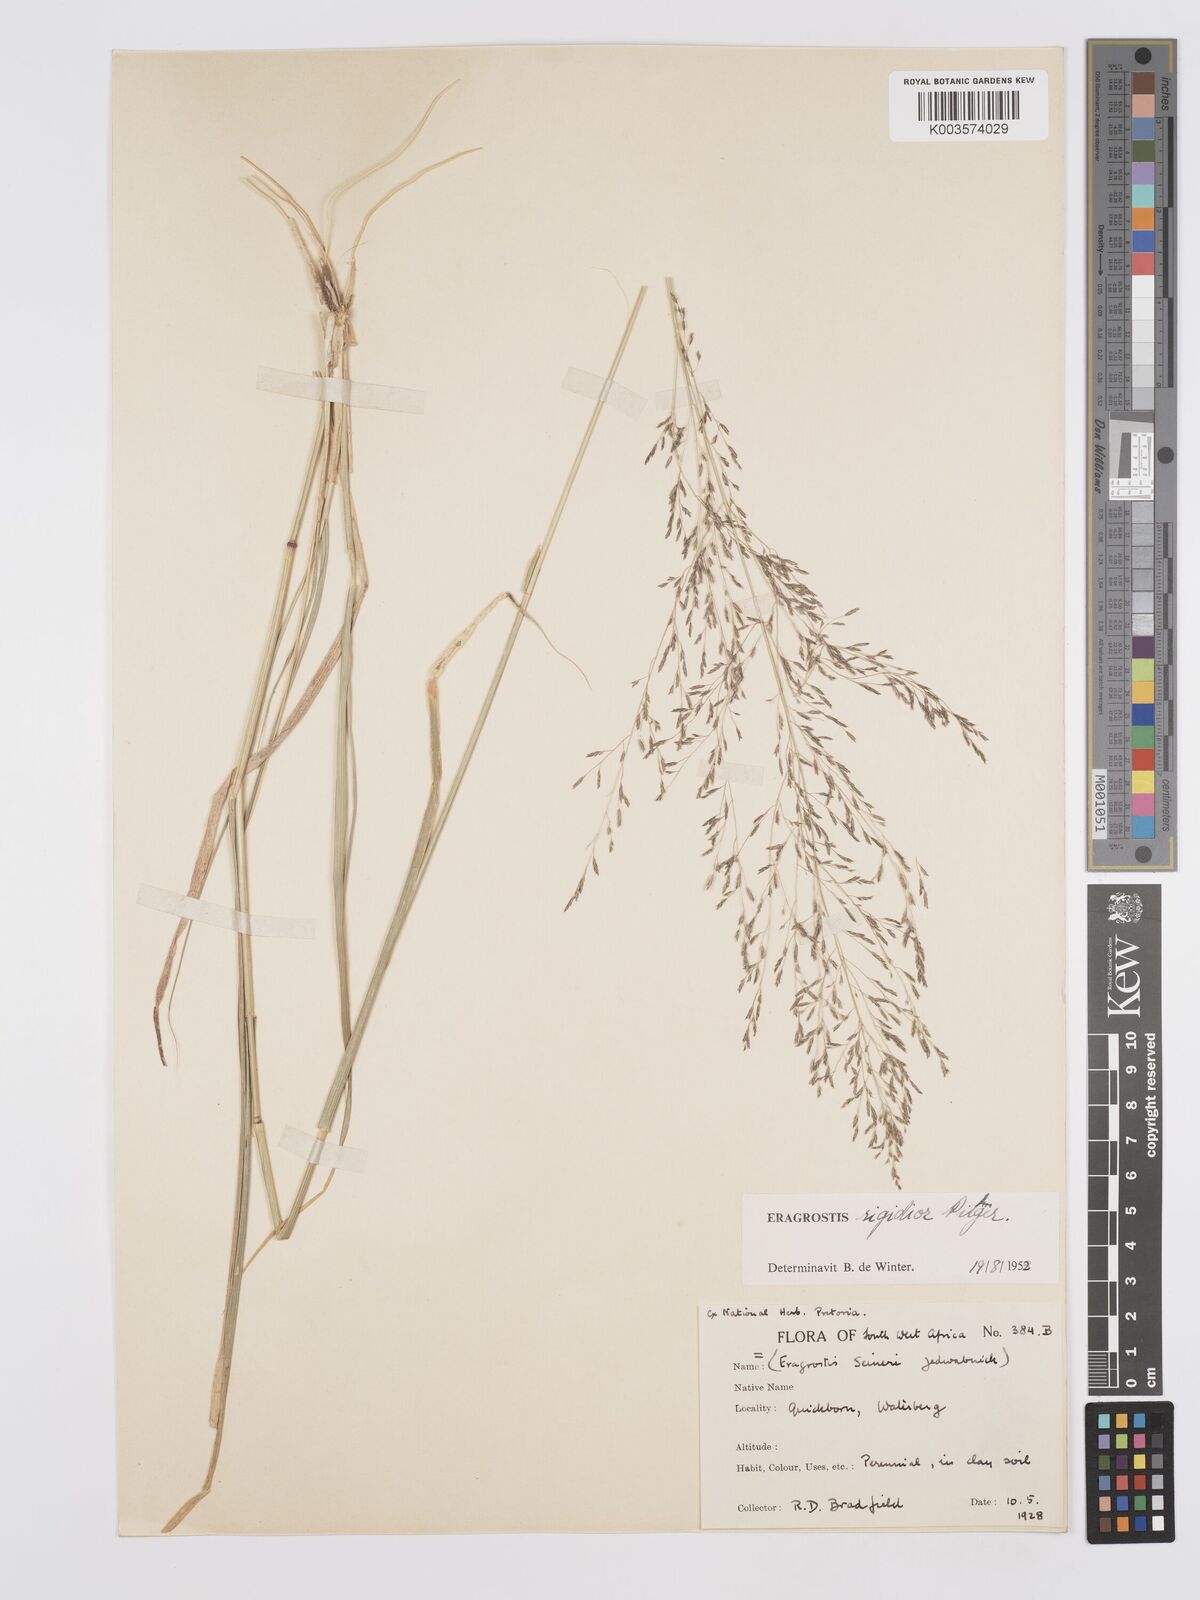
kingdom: Plantae
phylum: Tracheophyta
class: Liliopsida
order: Poales
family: Poaceae
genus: Eragrostis
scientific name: Eragrostis cylindriflora
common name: Cylinderflower lovegrass
